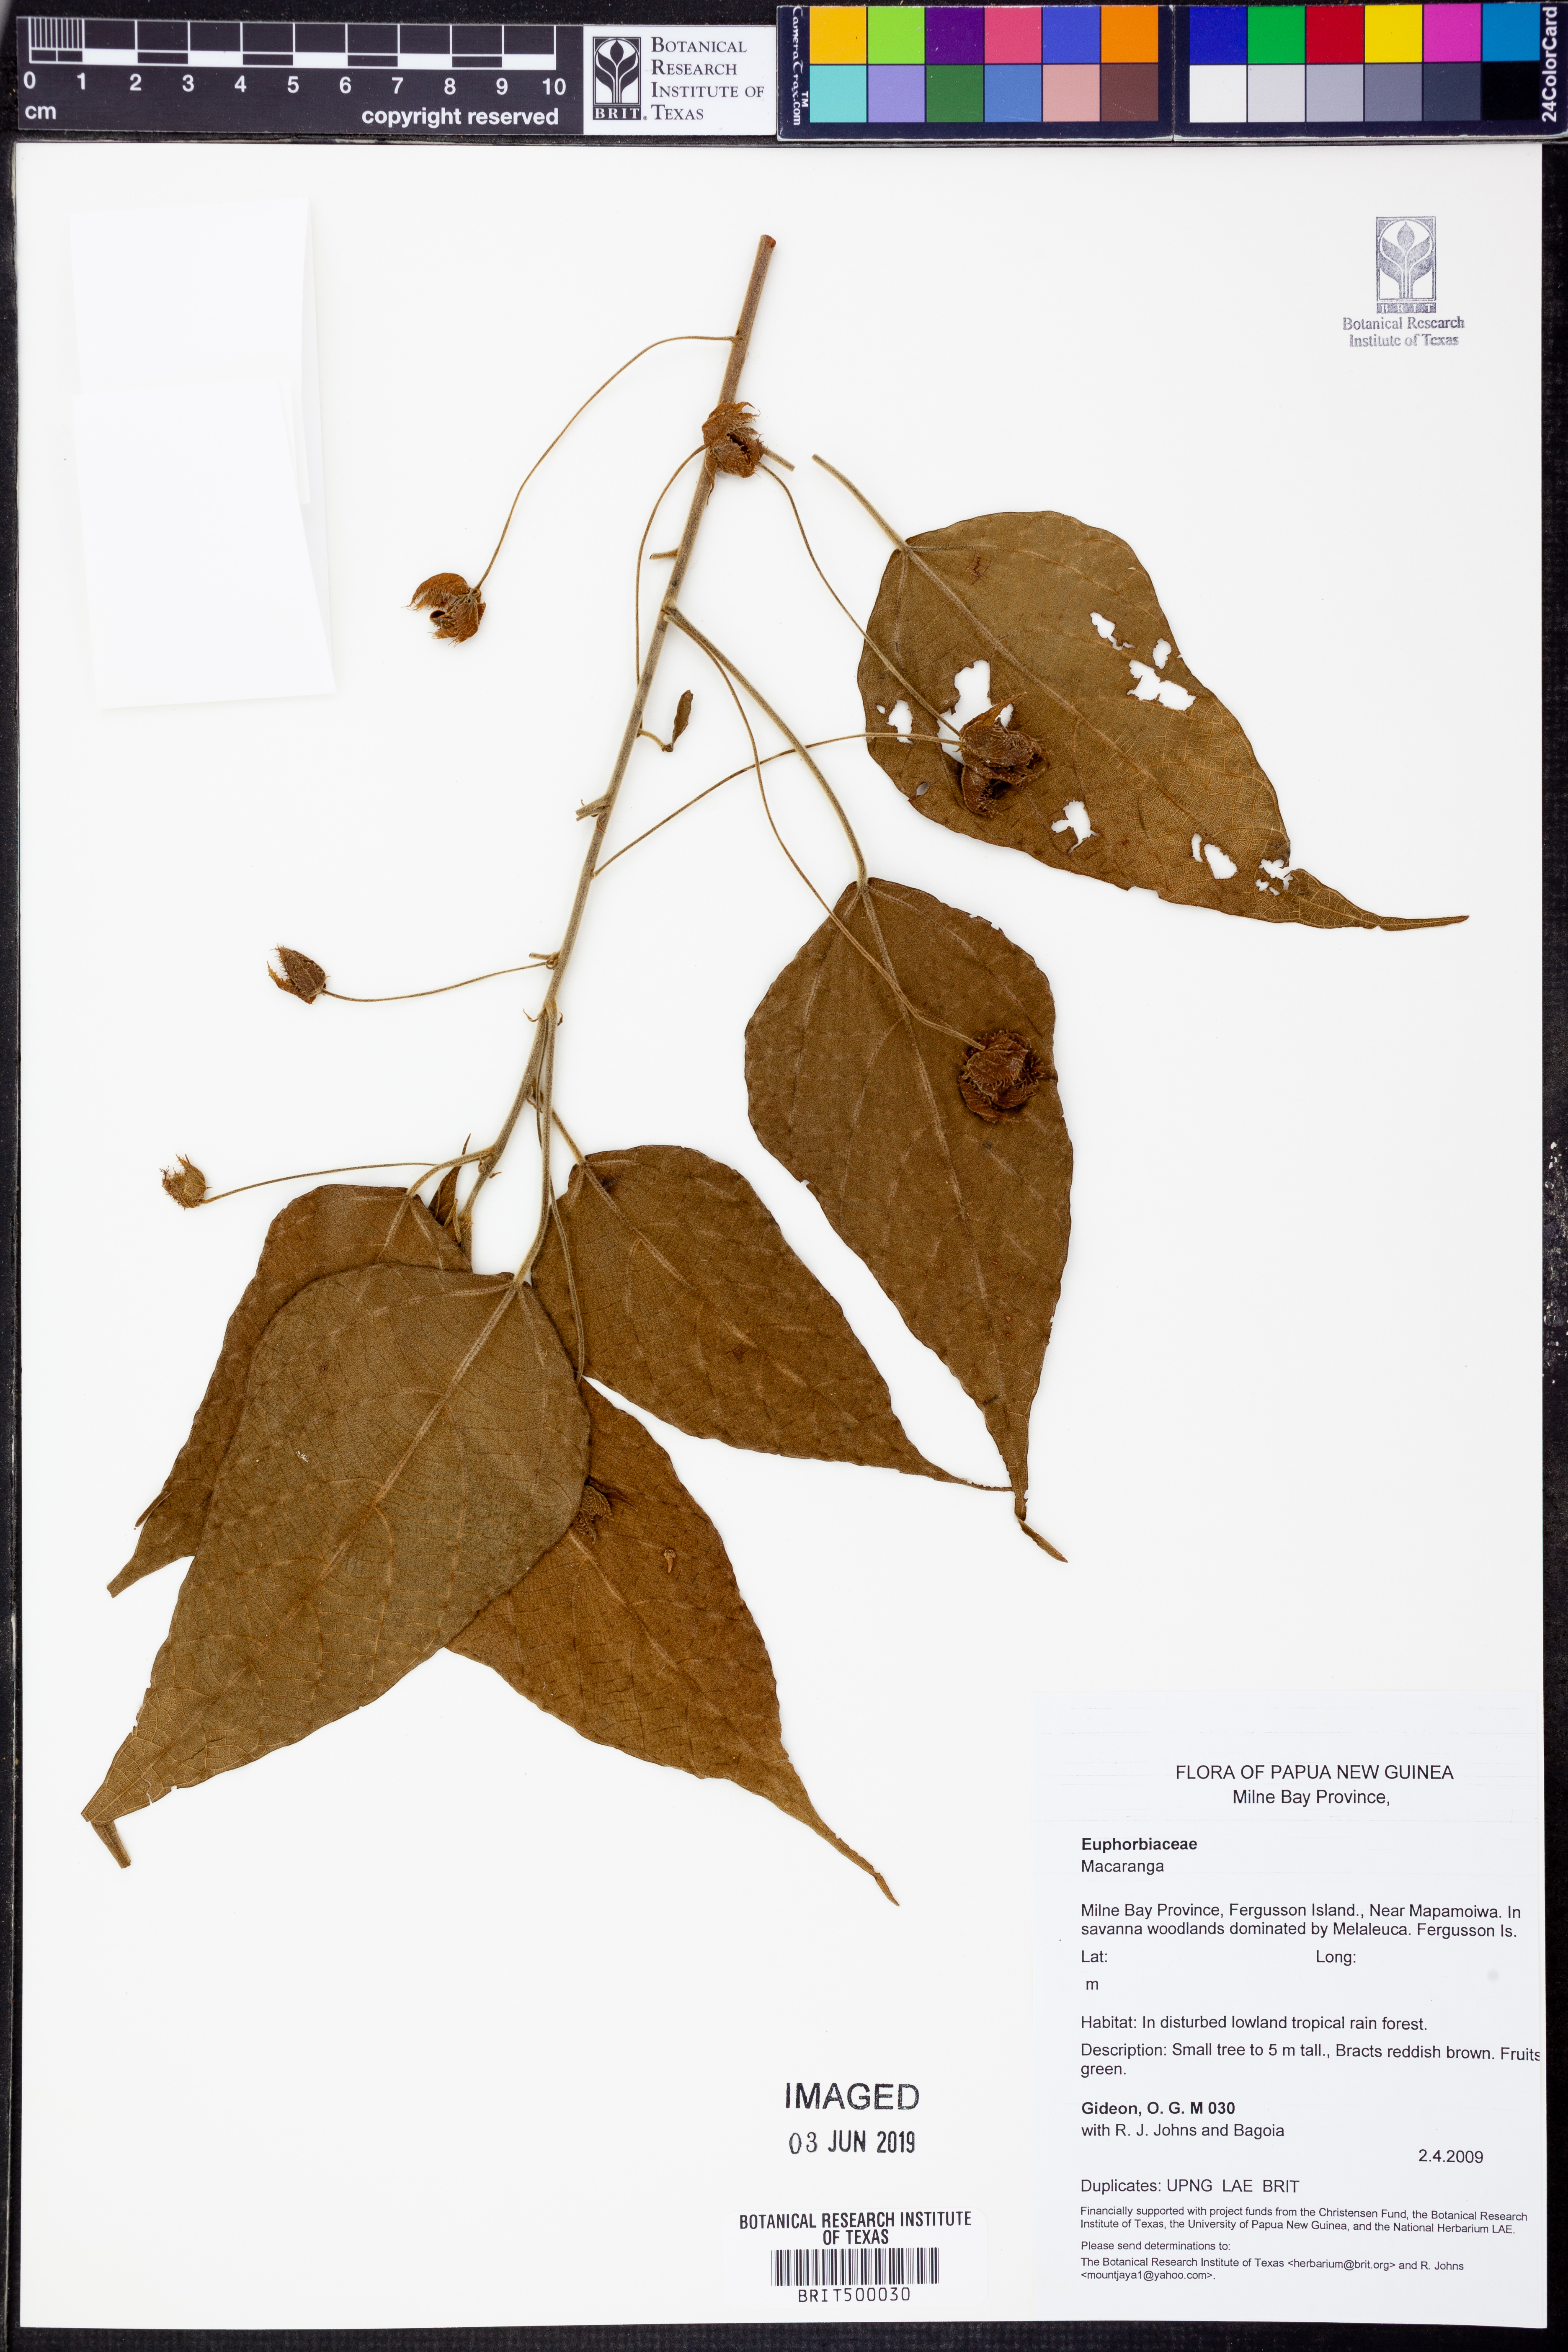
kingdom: Plantae
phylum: Tracheophyta
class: Magnoliopsida
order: Malpighiales
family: Euphorbiaceae
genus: Macaranga
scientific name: Macaranga
